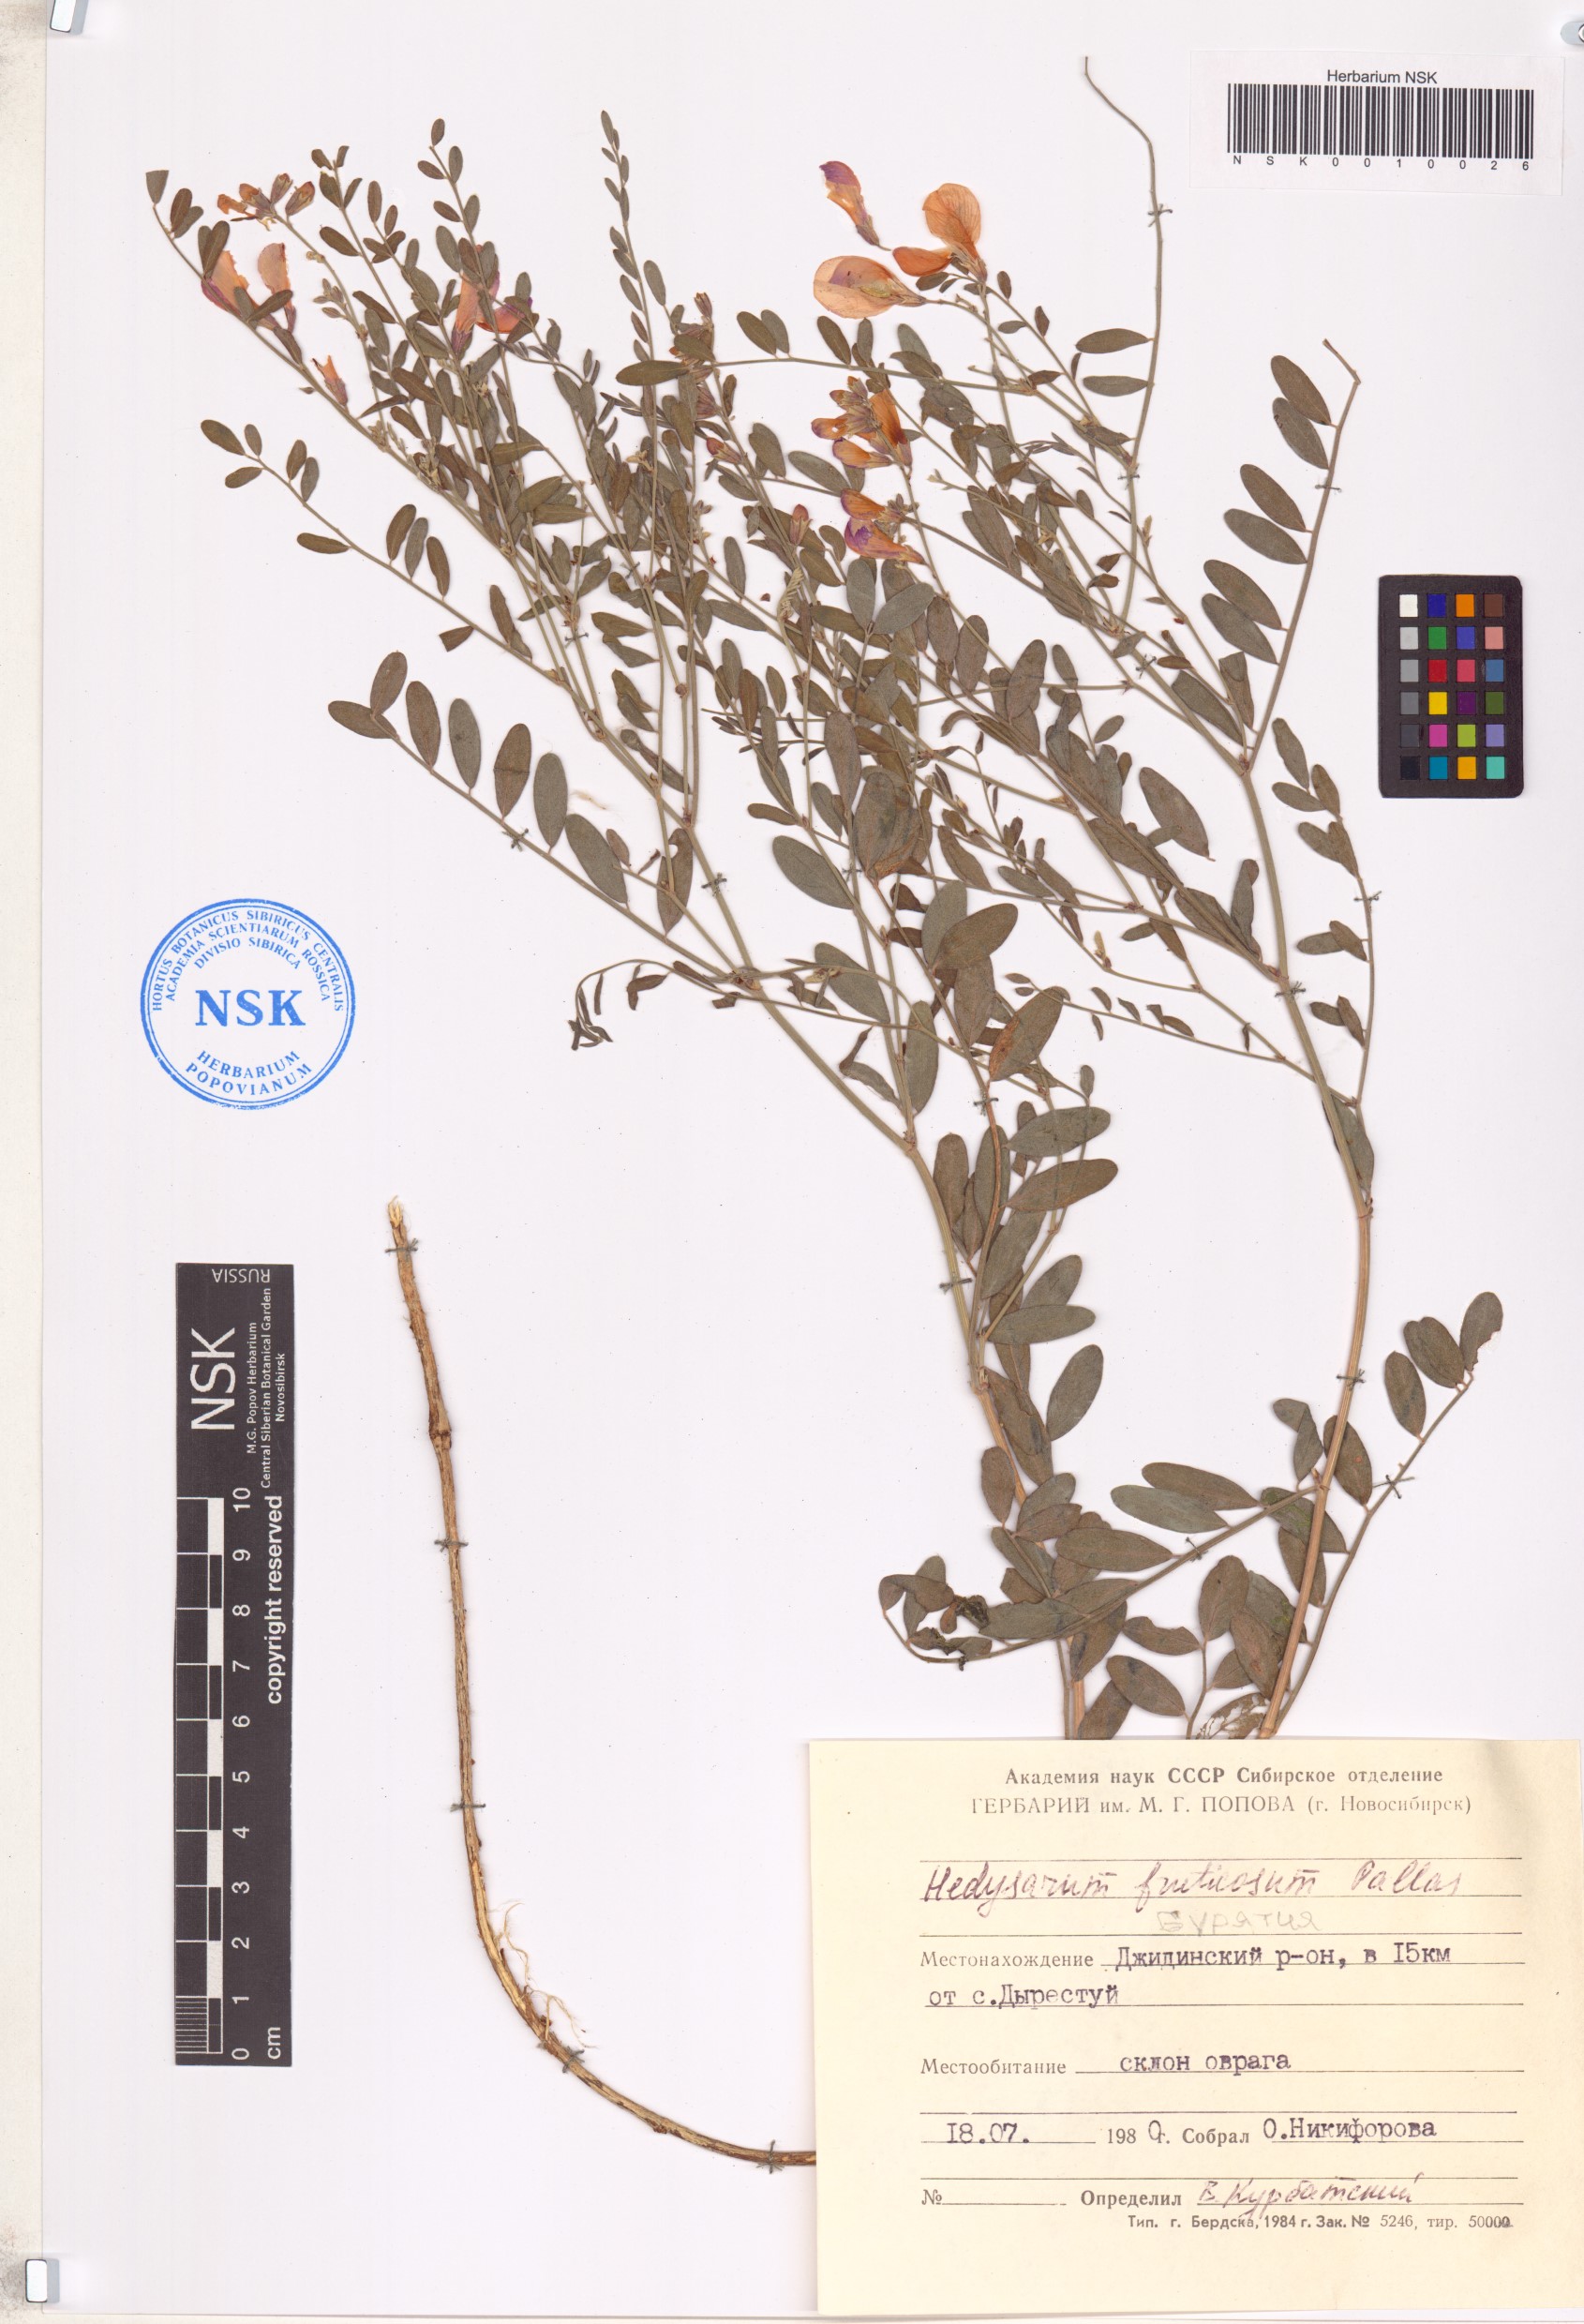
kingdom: Plantae
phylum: Tracheophyta
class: Magnoliopsida
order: Fabales
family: Fabaceae
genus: Corethrodendron
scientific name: Corethrodendron fruticosum
